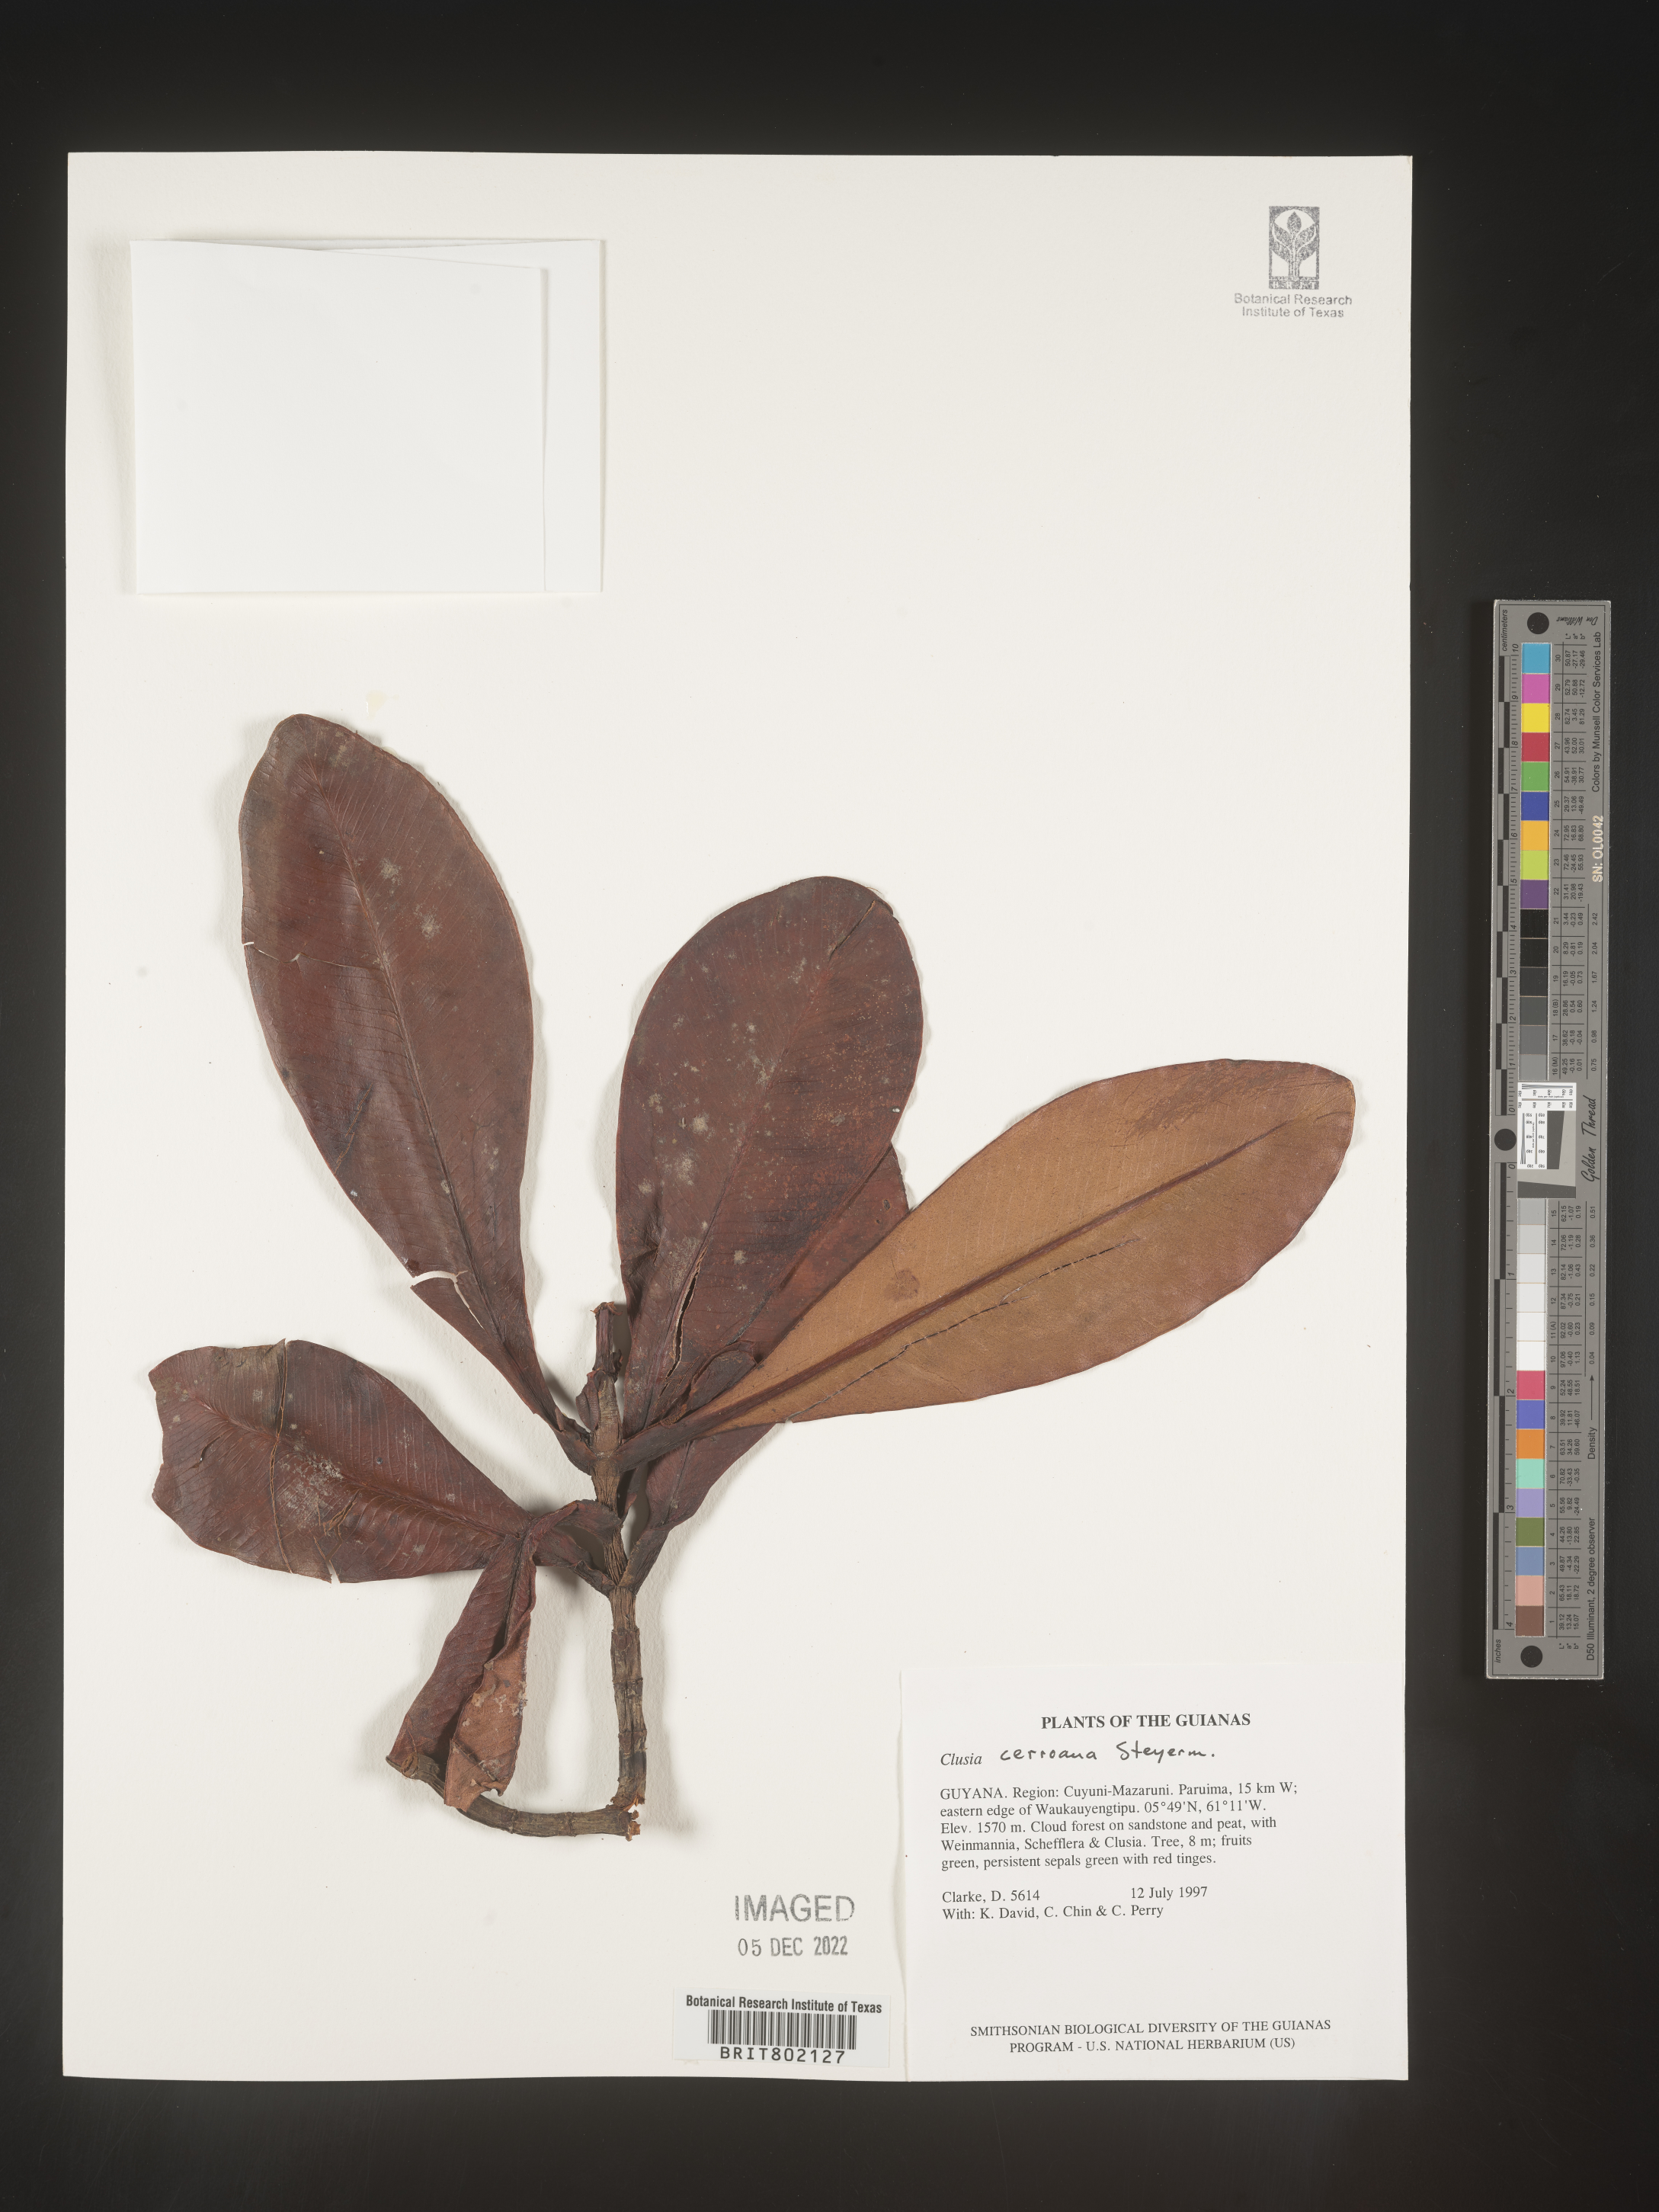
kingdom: Plantae
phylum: Tracheophyta
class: Magnoliopsida
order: Malpighiales
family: Clusiaceae
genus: Clusia
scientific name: Clusia cerroana
